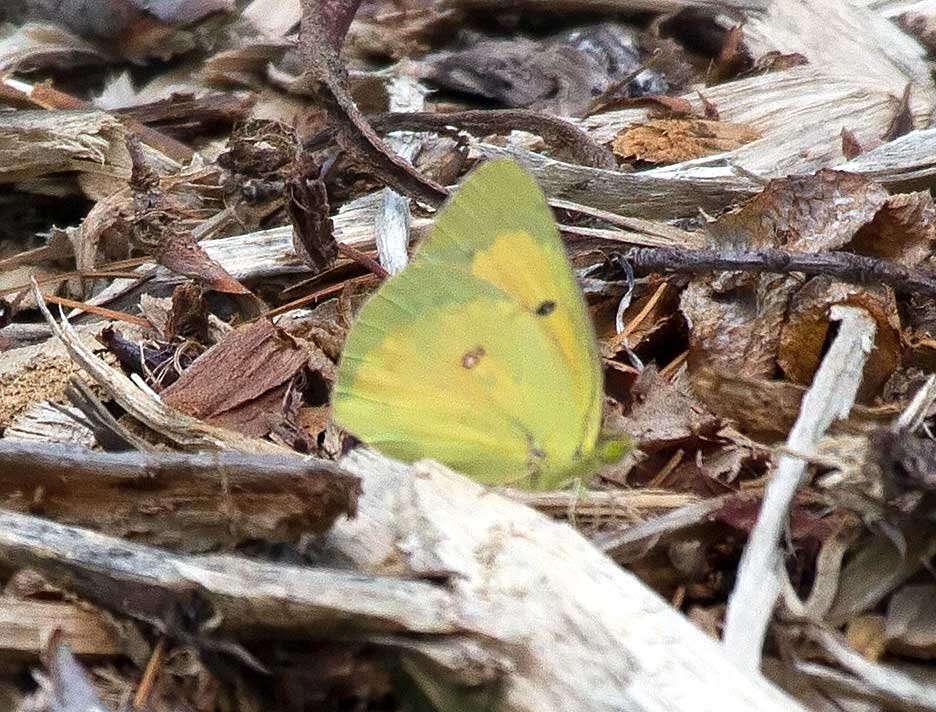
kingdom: Animalia
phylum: Arthropoda
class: Insecta
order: Lepidoptera
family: Pieridae
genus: Colias
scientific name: Colias eurytheme
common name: Orange Sulphur
